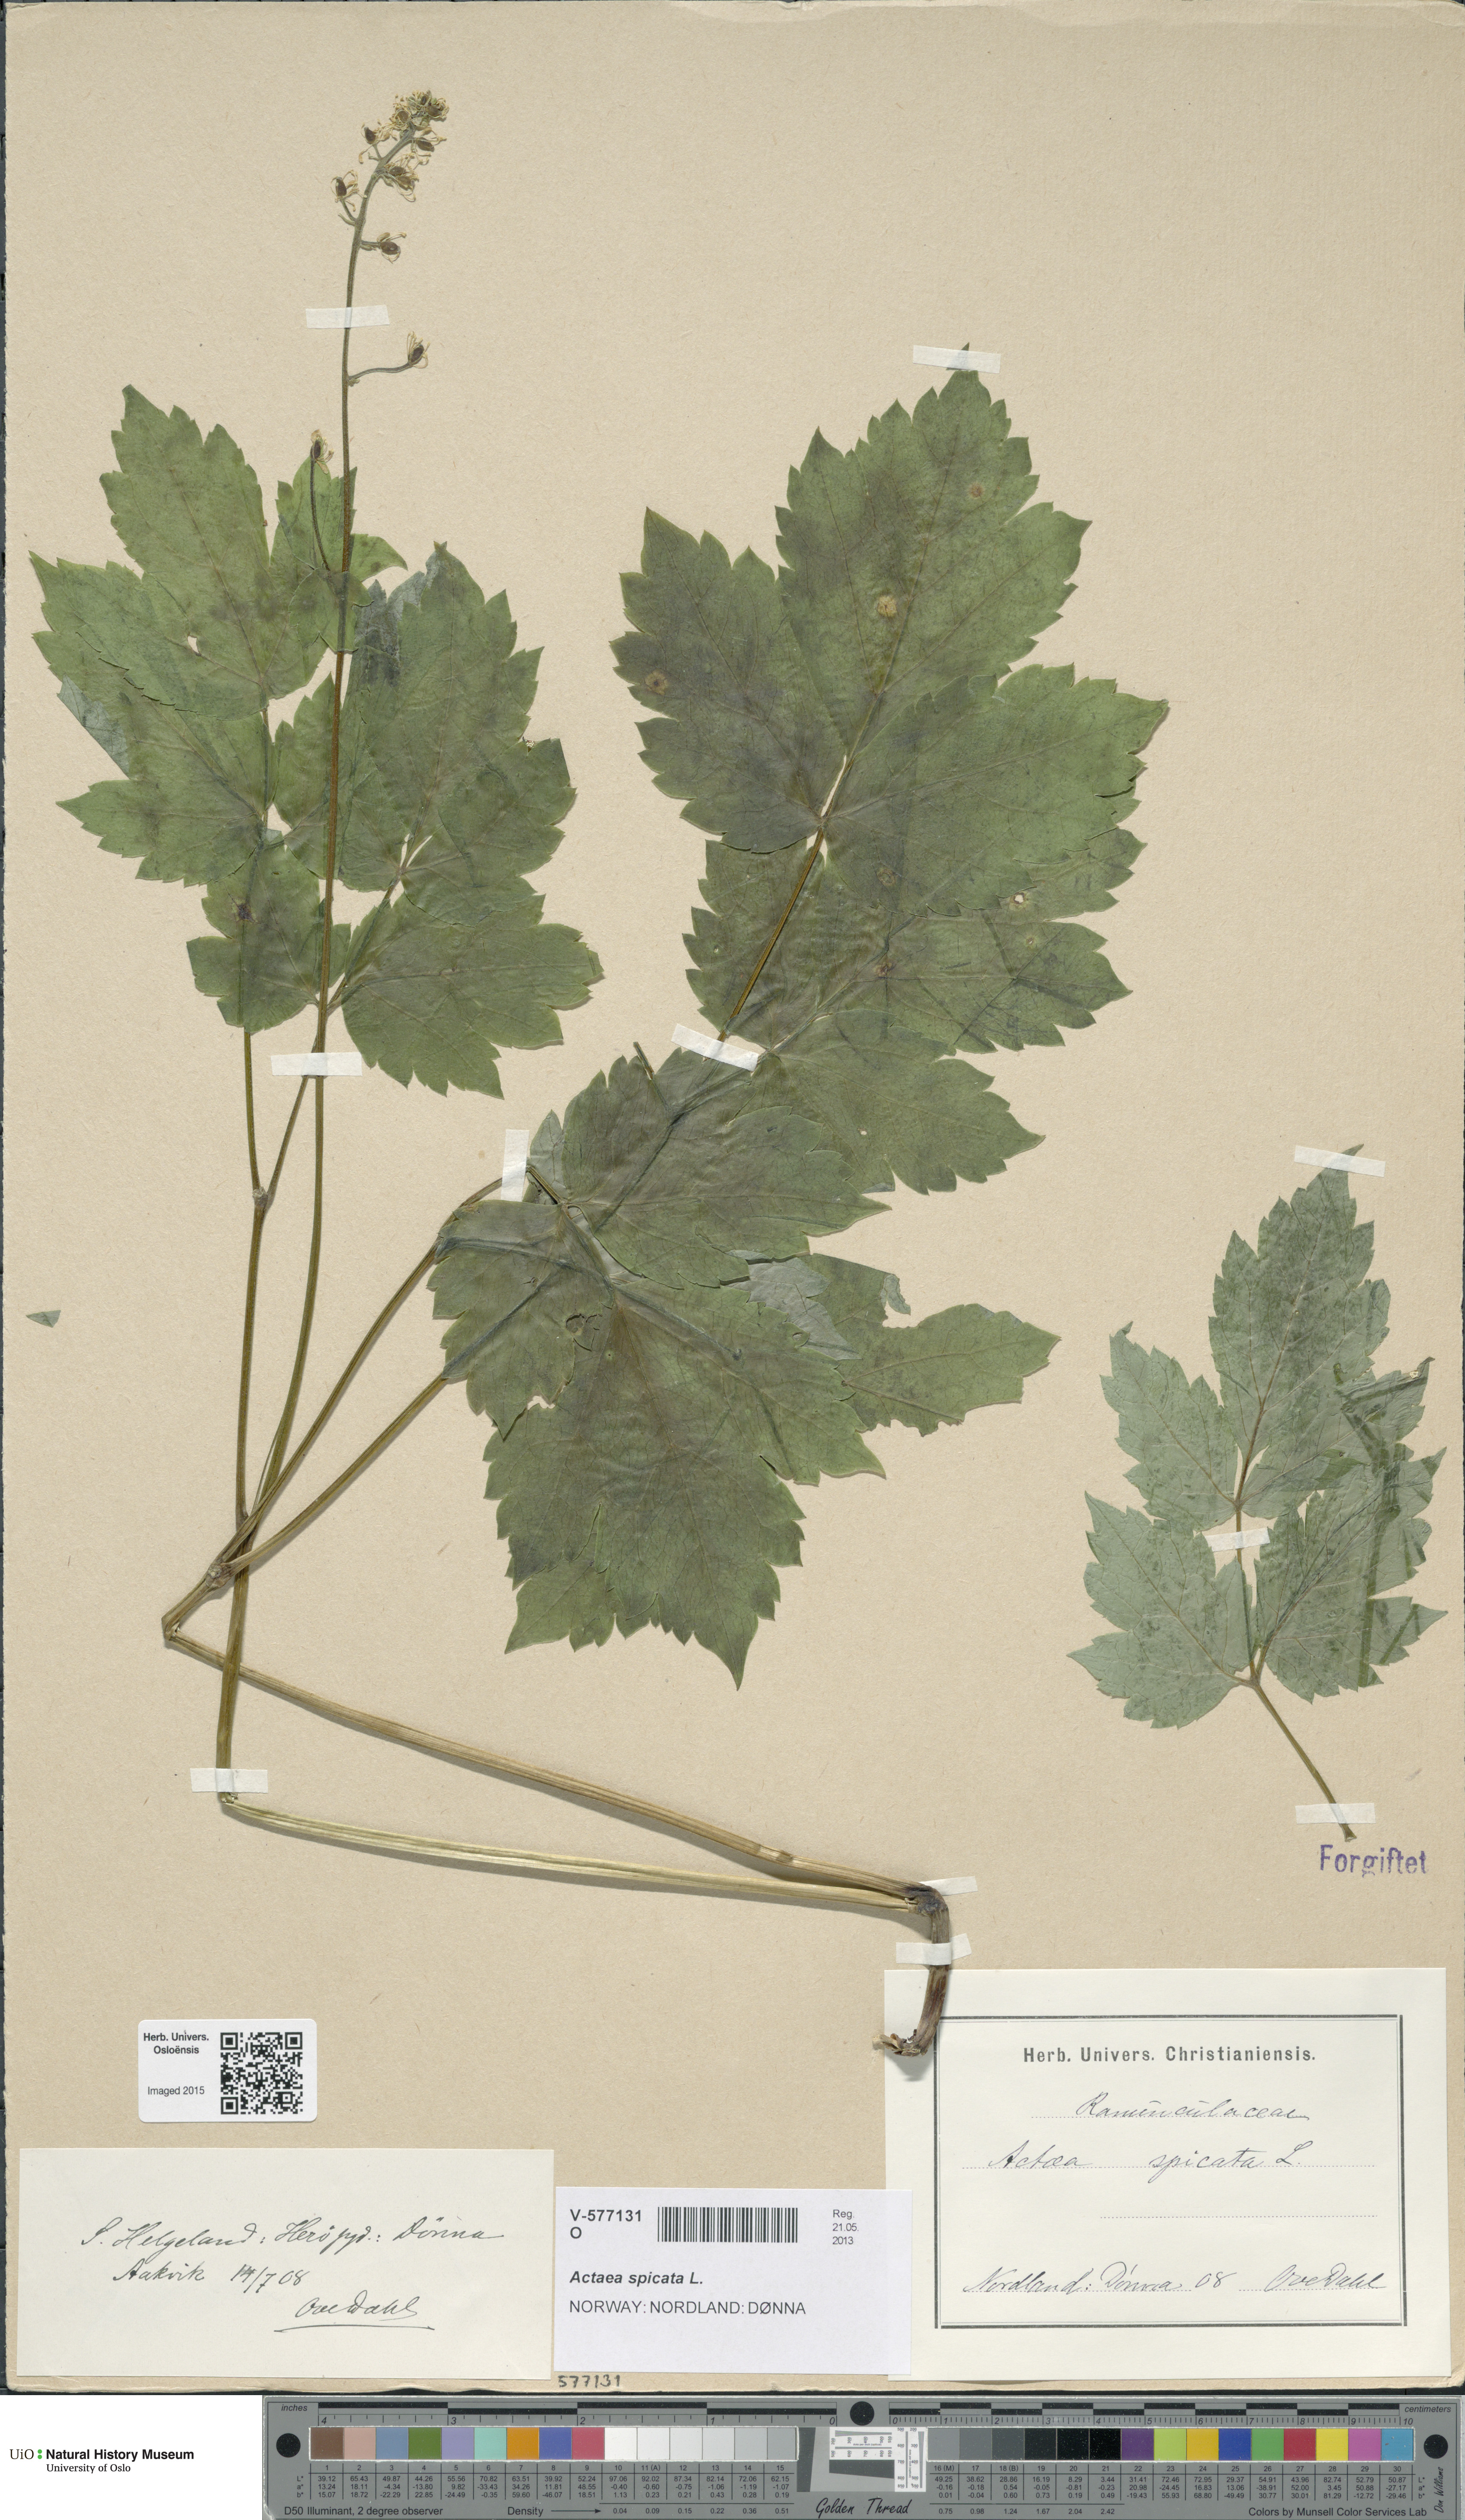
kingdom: Plantae
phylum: Tracheophyta
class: Magnoliopsida
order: Ranunculales
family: Ranunculaceae
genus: Actaea
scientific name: Actaea spicata
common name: Baneberry
